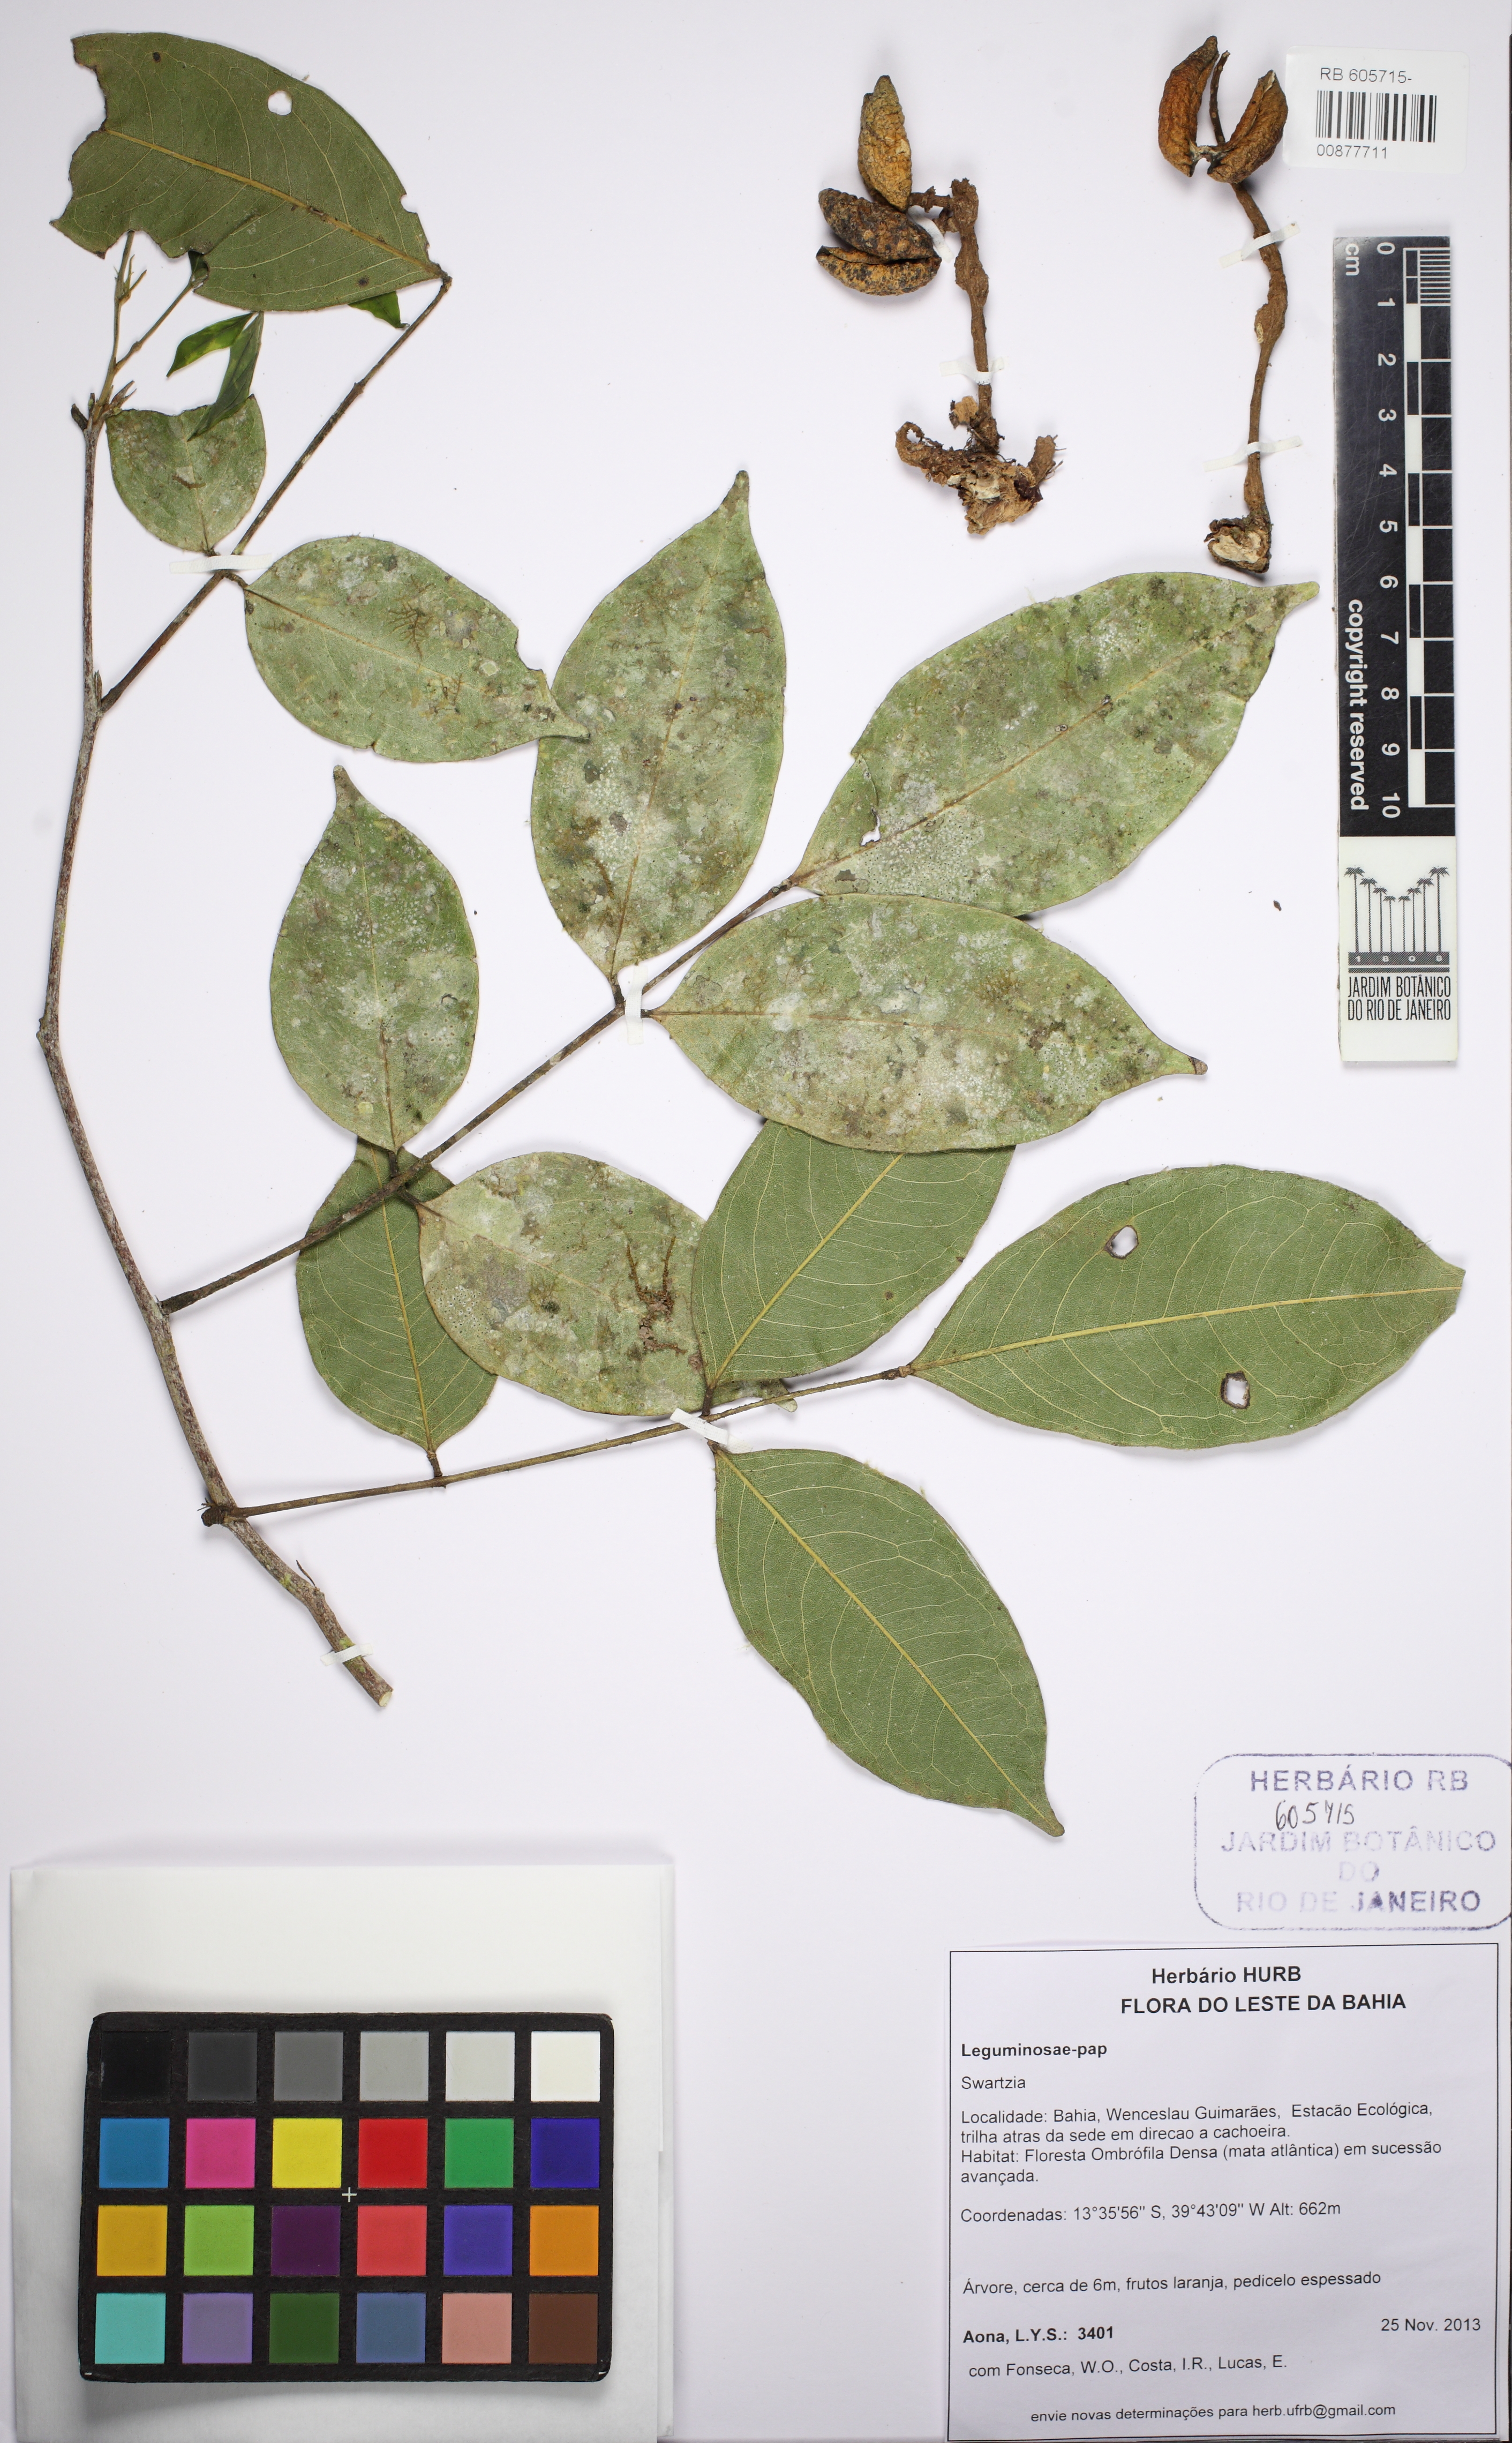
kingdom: Plantae
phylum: Tracheophyta
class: Magnoliopsida
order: Fabales
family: Fabaceae
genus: Swartzia
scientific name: Swartzia apetala
